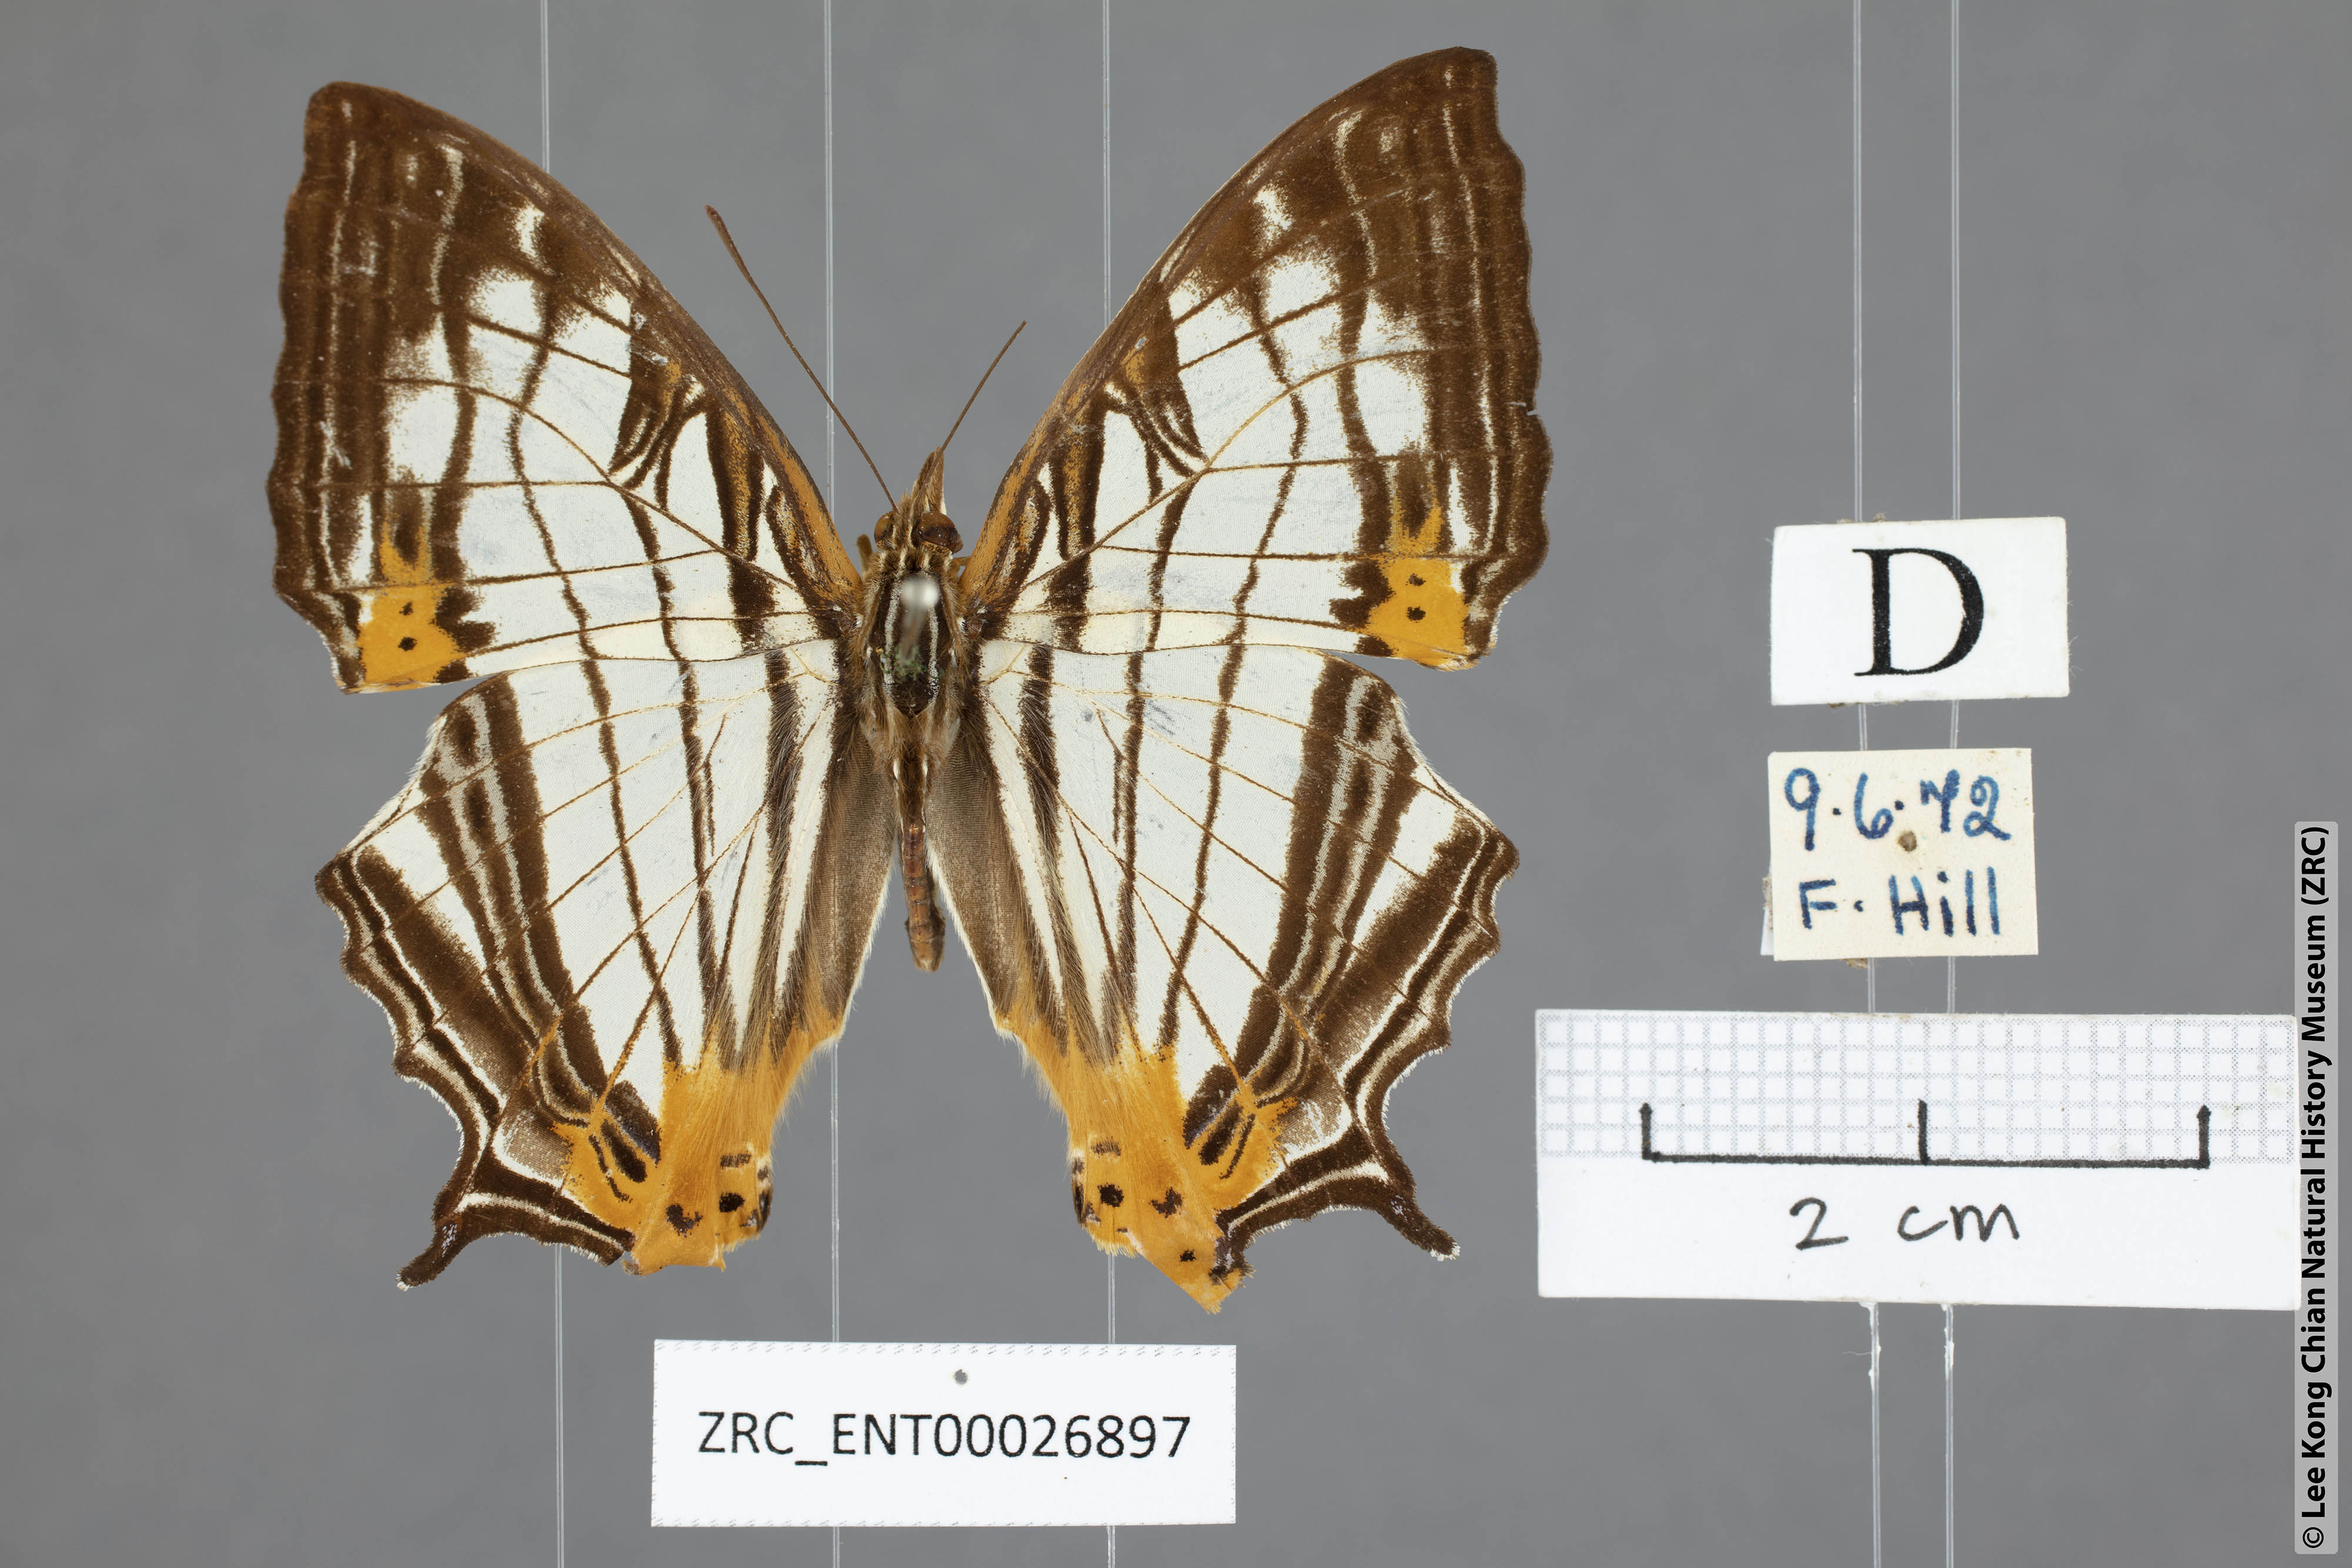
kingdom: Animalia
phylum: Arthropoda
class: Insecta
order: Lepidoptera
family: Nymphalidae
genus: Cyrestis
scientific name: Cyrestis maenalis
